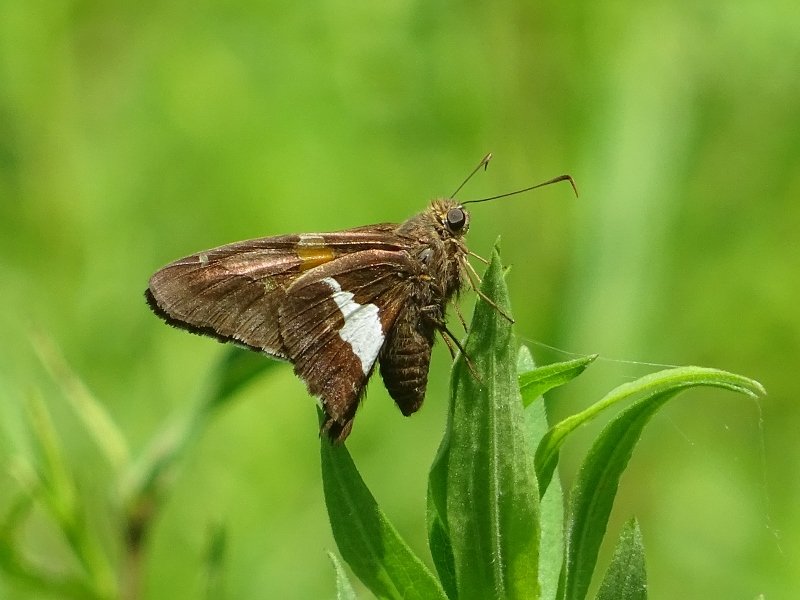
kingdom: Animalia
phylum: Arthropoda
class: Insecta
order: Lepidoptera
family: Hesperiidae
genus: Epargyreus
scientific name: Epargyreus clarus
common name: Silver-spotted Skipper
